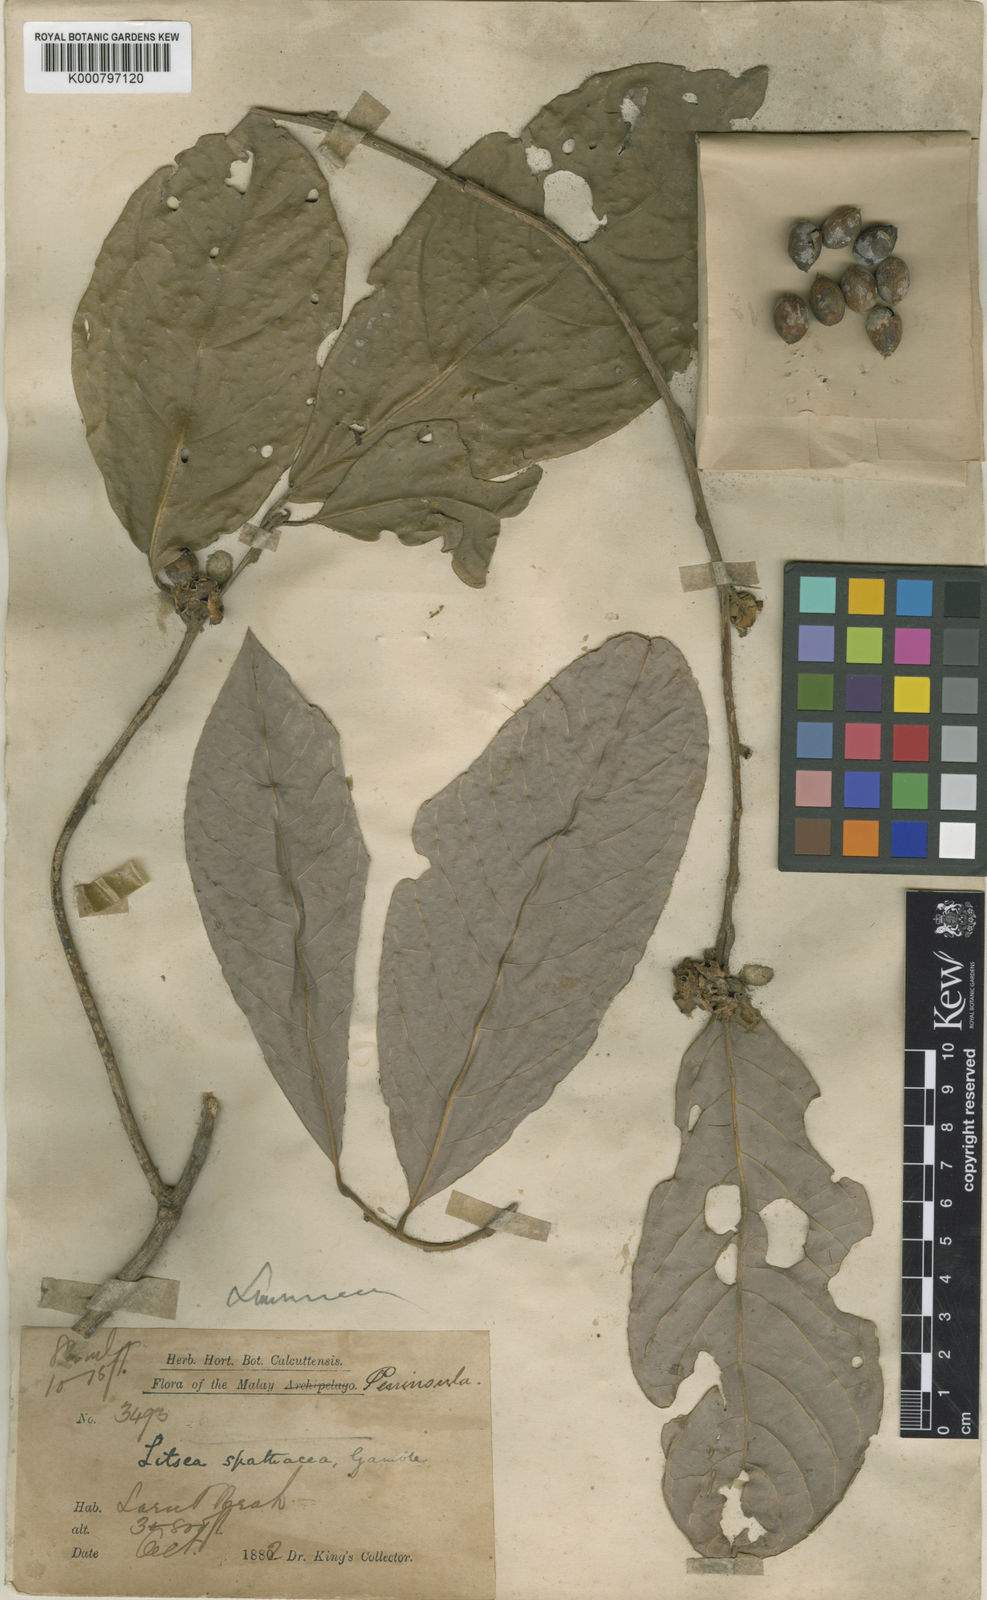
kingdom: Plantae
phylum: Tracheophyta
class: Magnoliopsida
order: Laurales
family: Lauraceae
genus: Litsea
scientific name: Litsea spathacea
